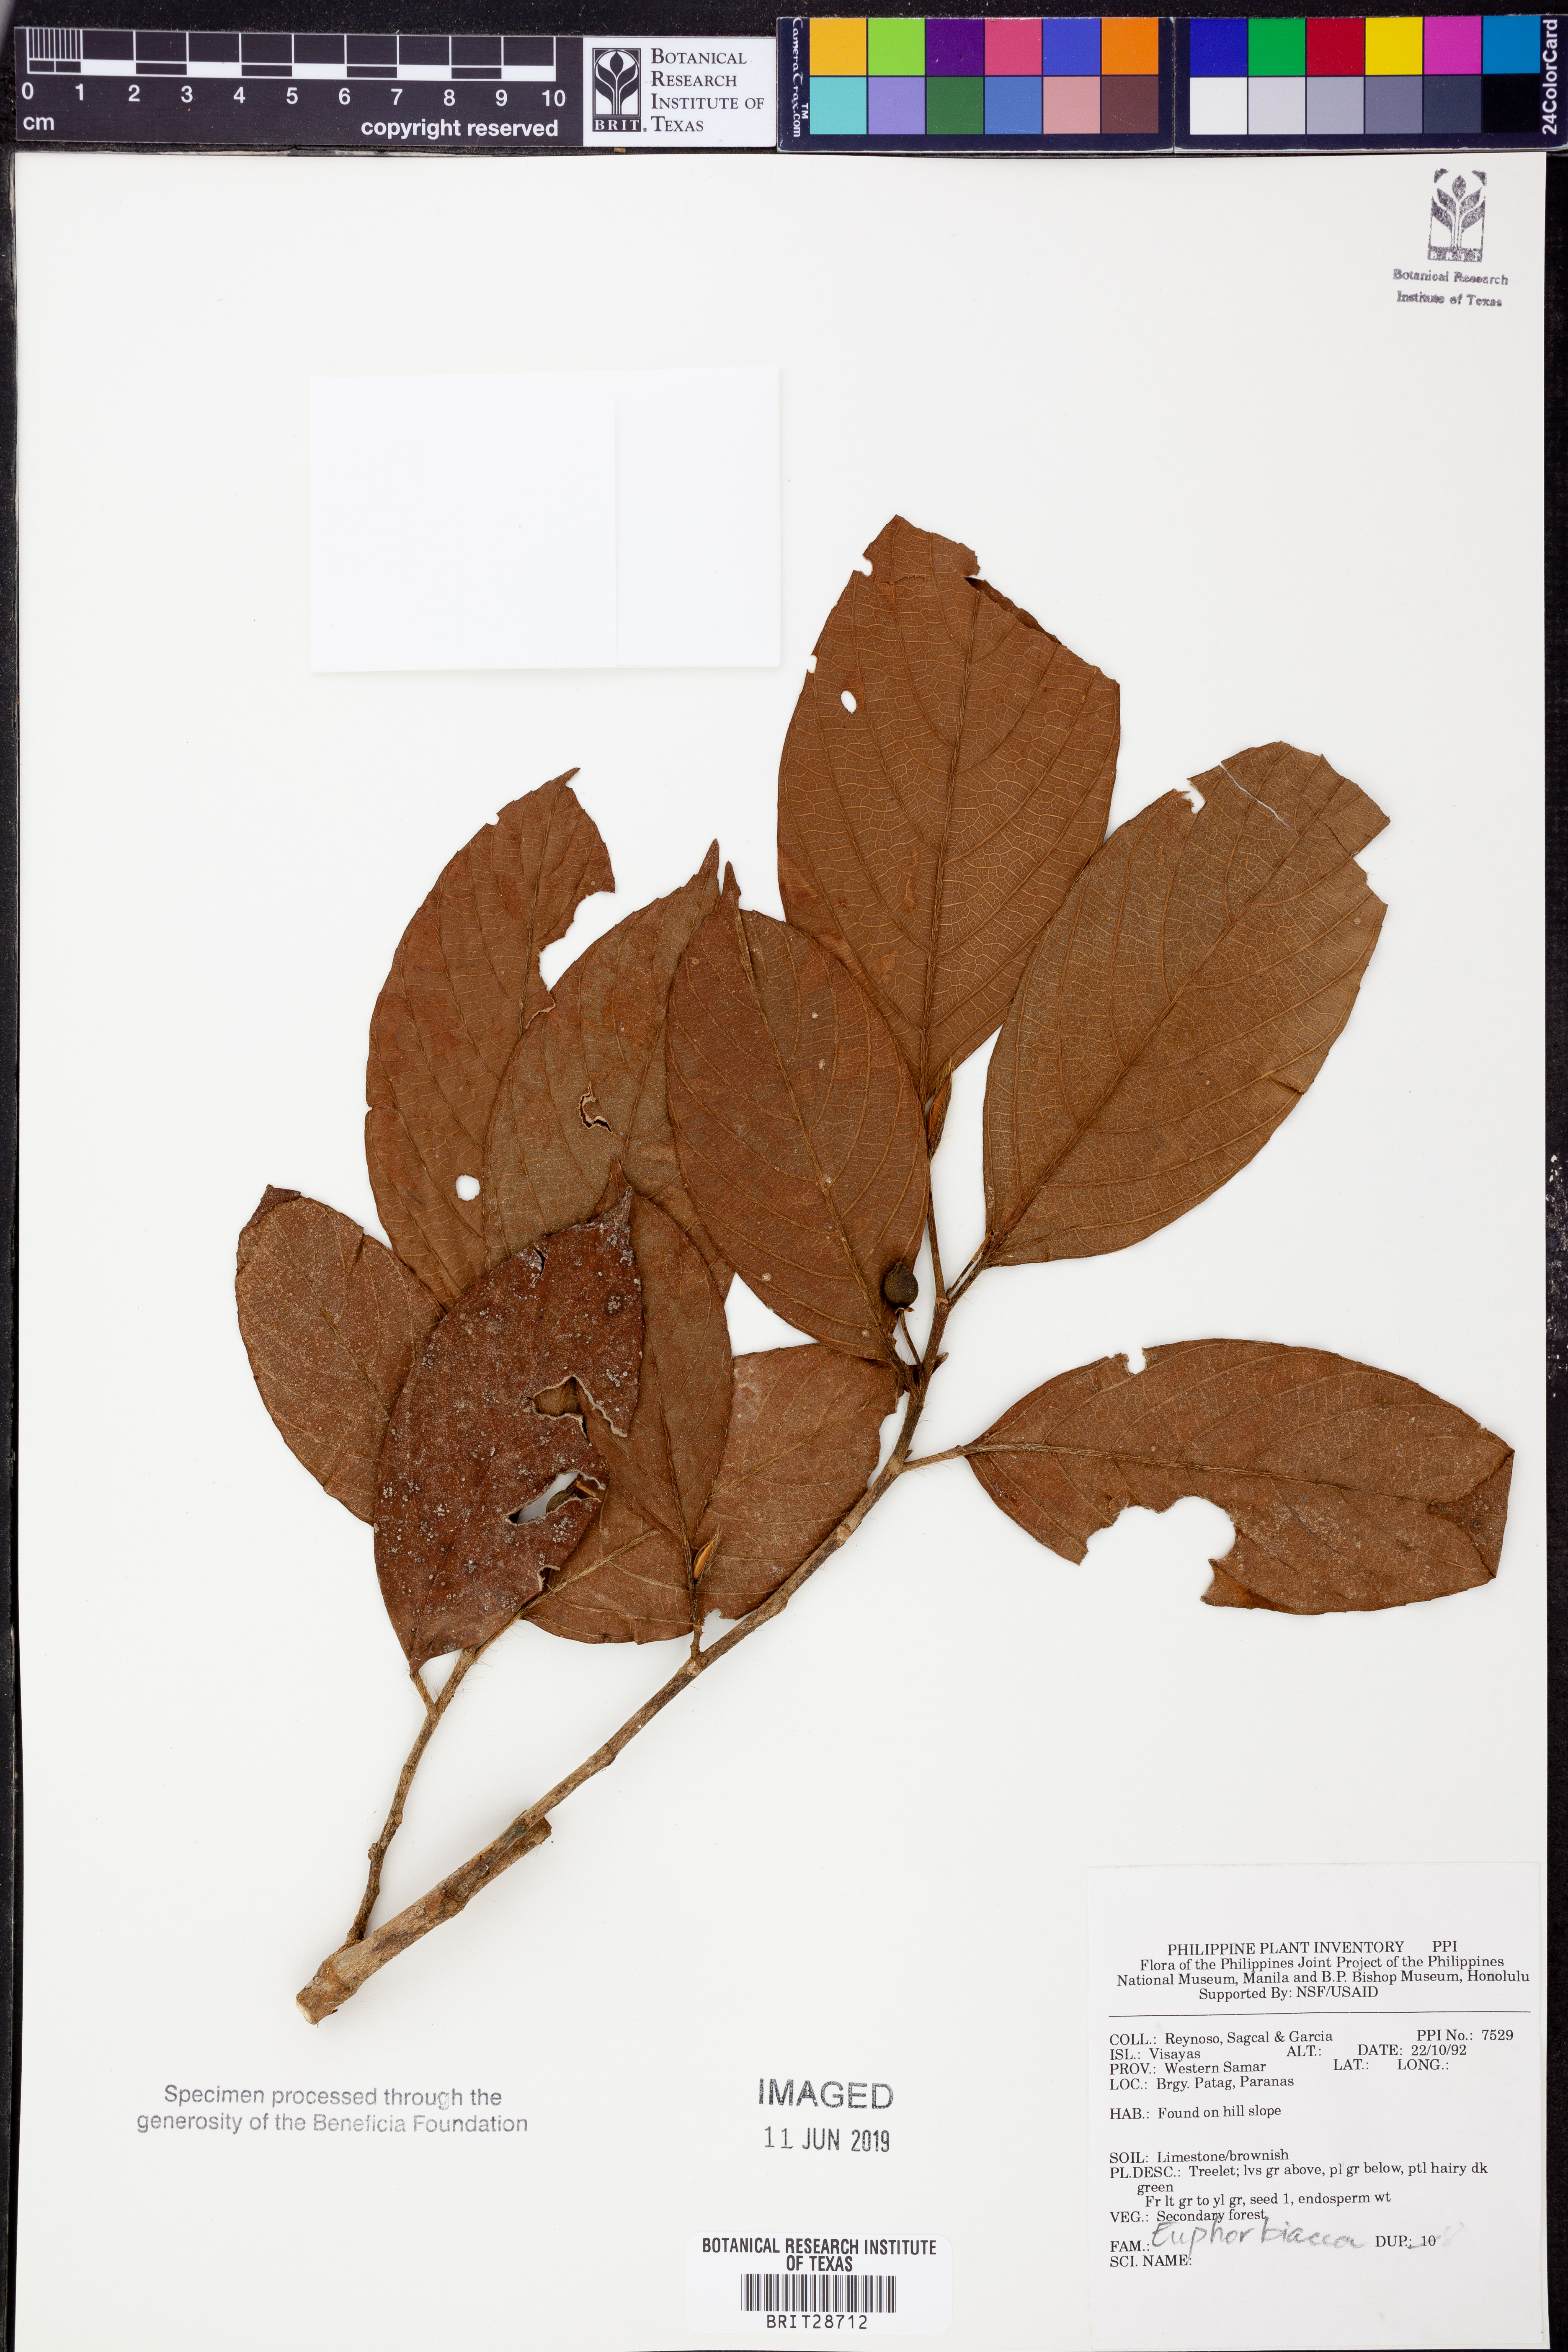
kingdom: Plantae
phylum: Tracheophyta
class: Magnoliopsida
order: Malpighiales
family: Euphorbiaceae
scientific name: Euphorbiaceae
